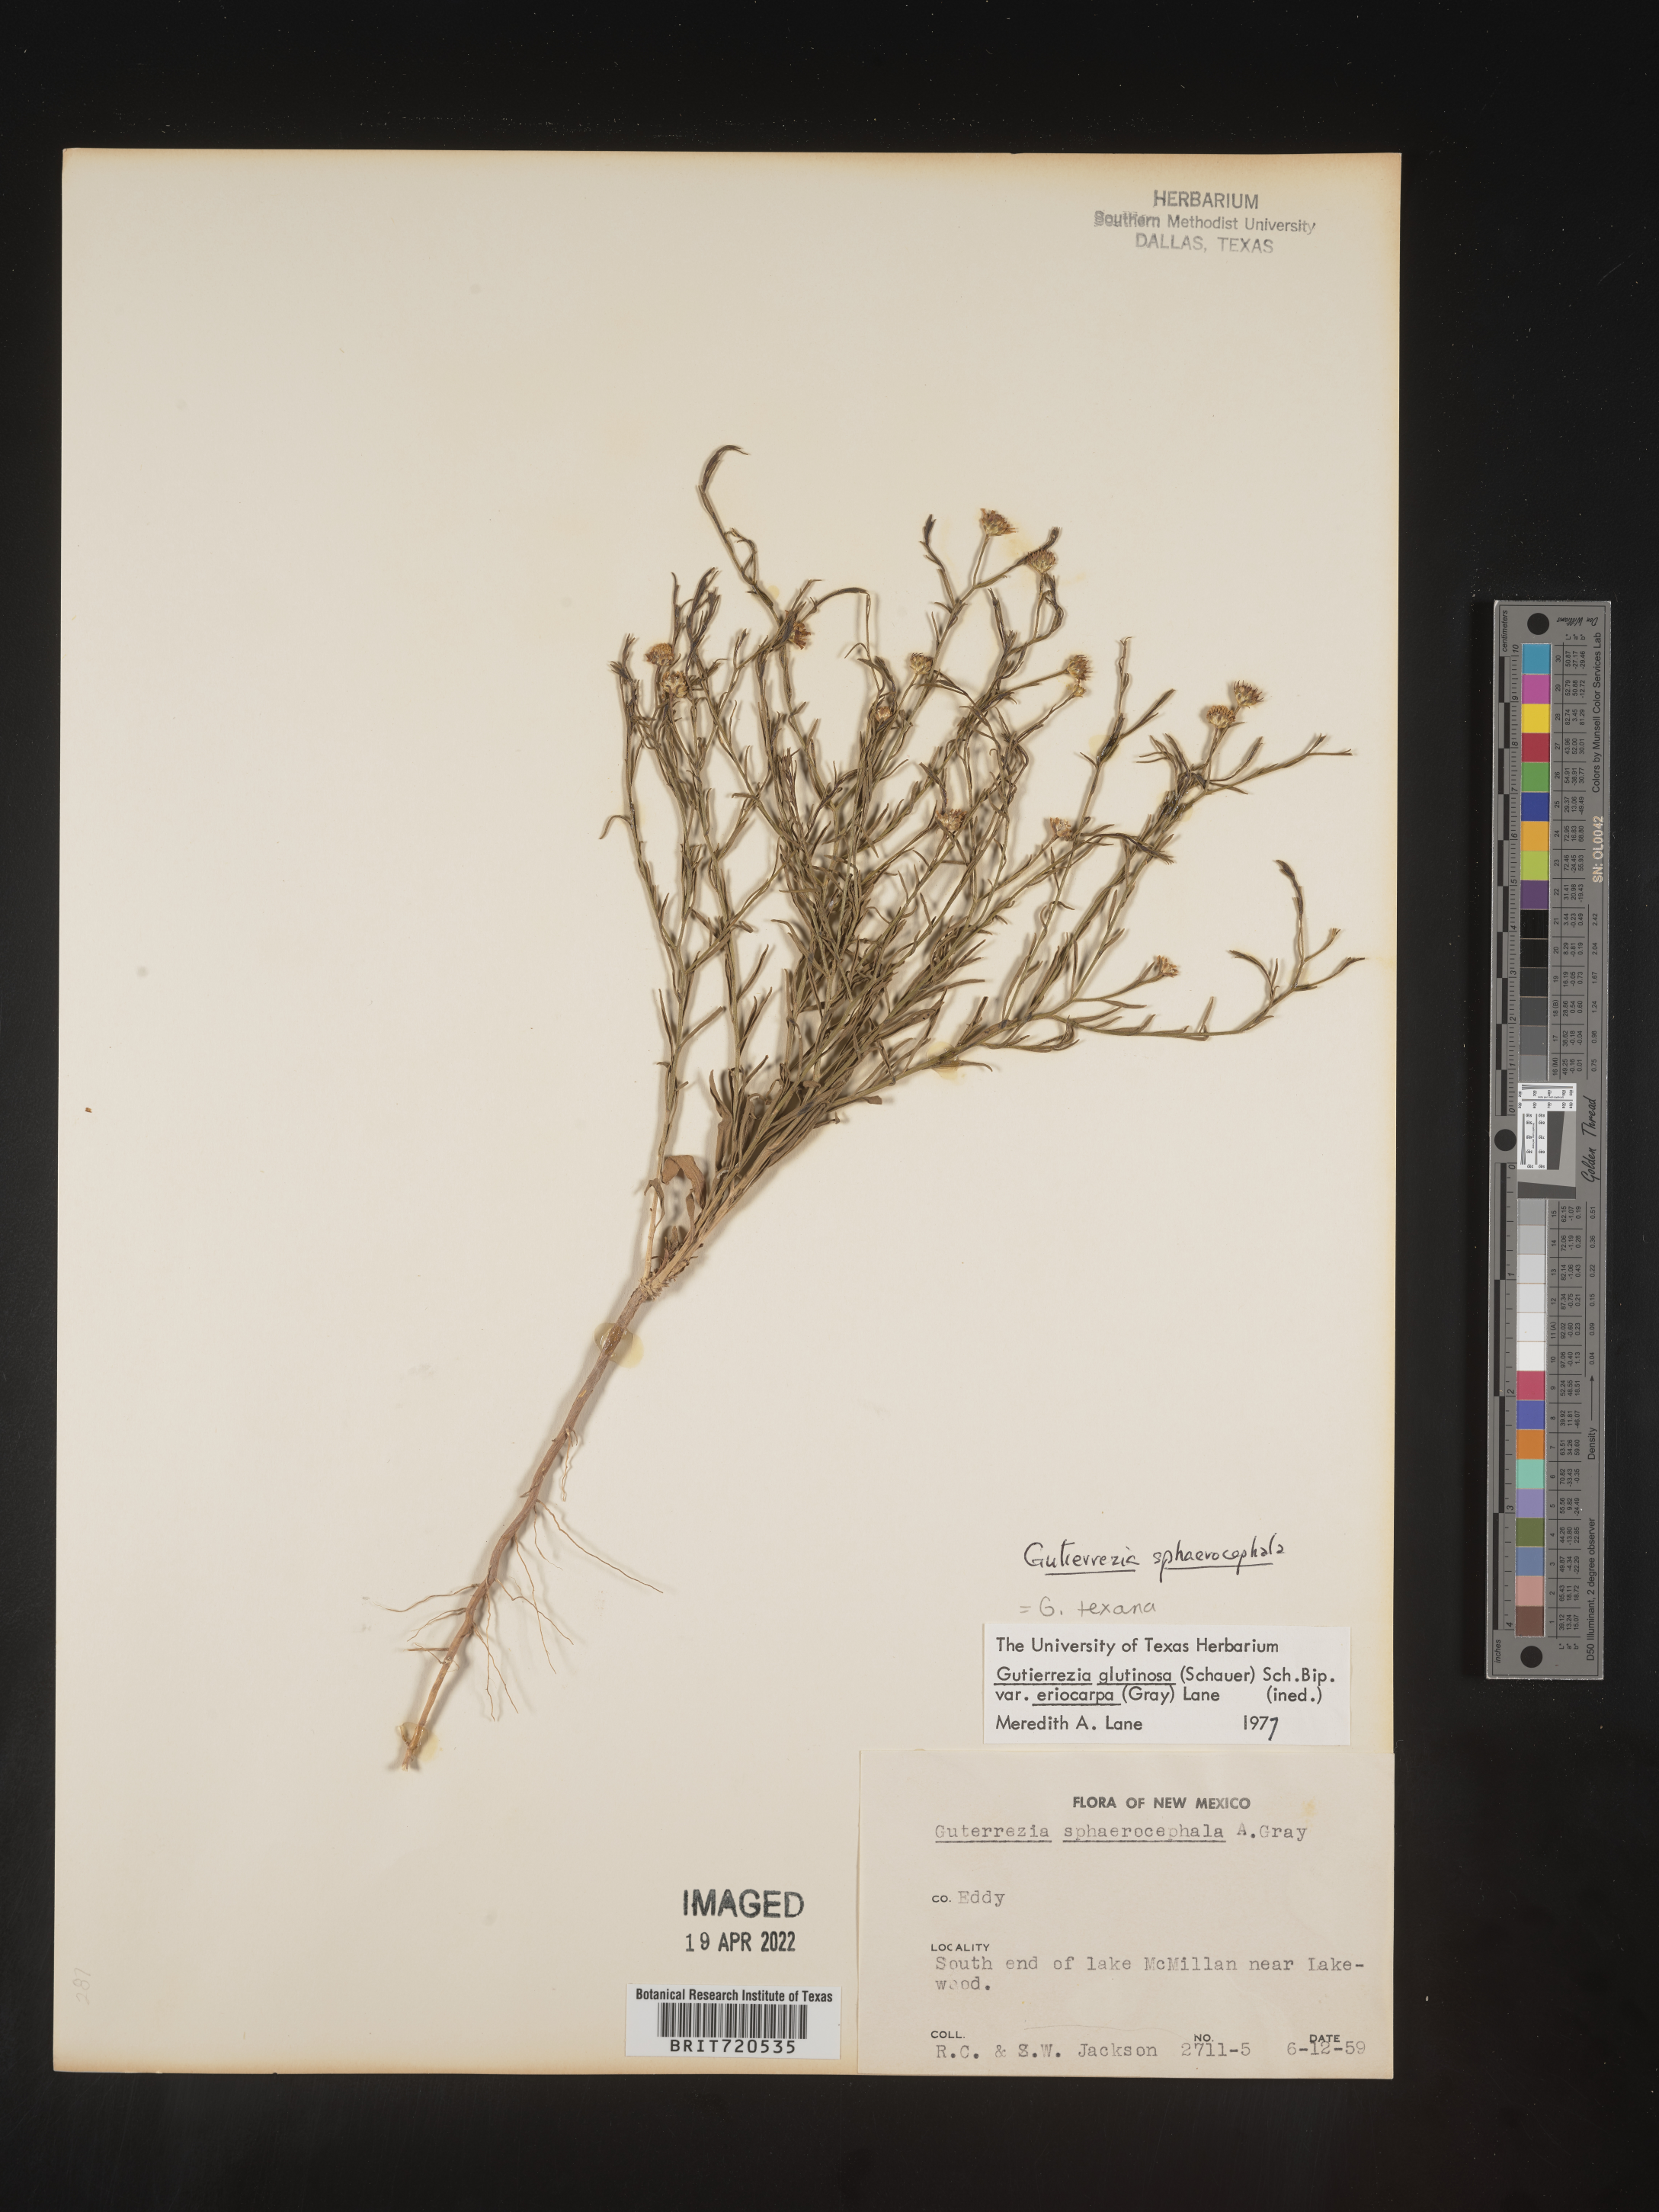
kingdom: Plantae
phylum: Tracheophyta
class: Magnoliopsida
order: Asterales
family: Asteraceae
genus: Gutierrezia
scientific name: Gutierrezia sphaerocephala
